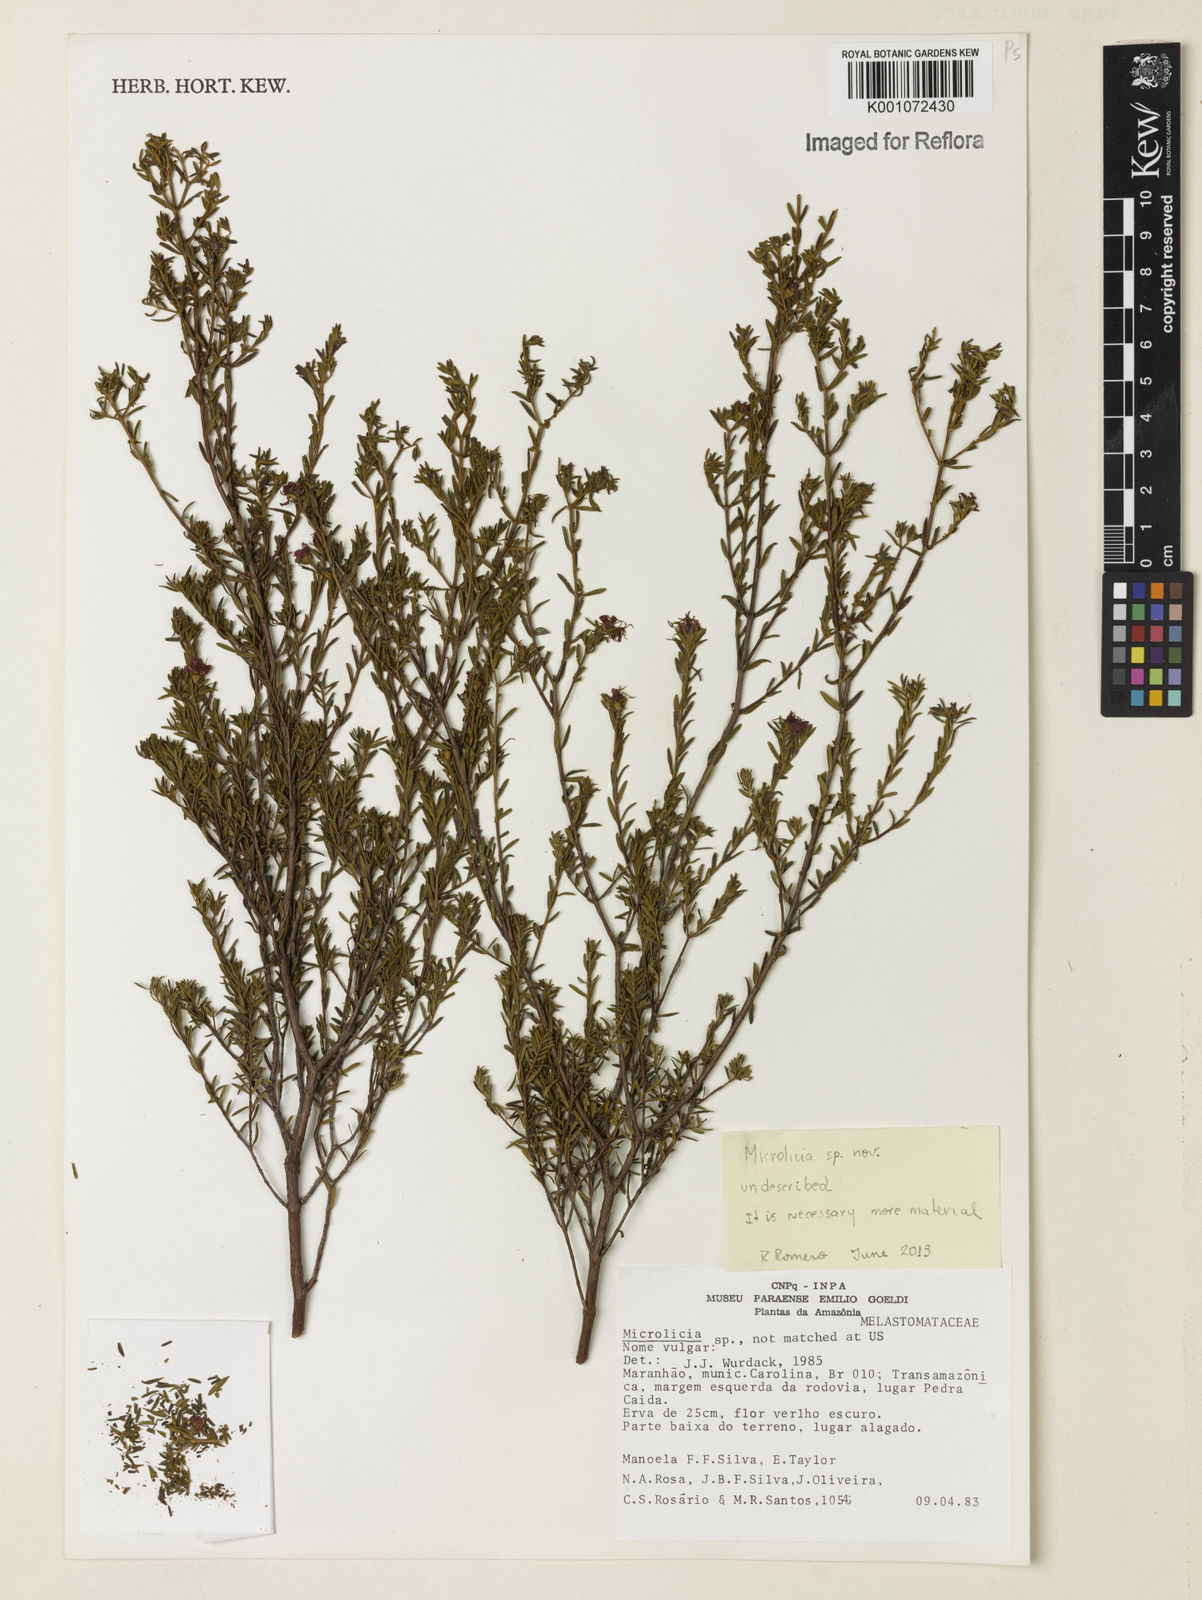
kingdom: Plantae
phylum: Tracheophyta
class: Magnoliopsida
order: Myrtales
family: Melastomataceae
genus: Microlicia
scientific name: Microlicia
